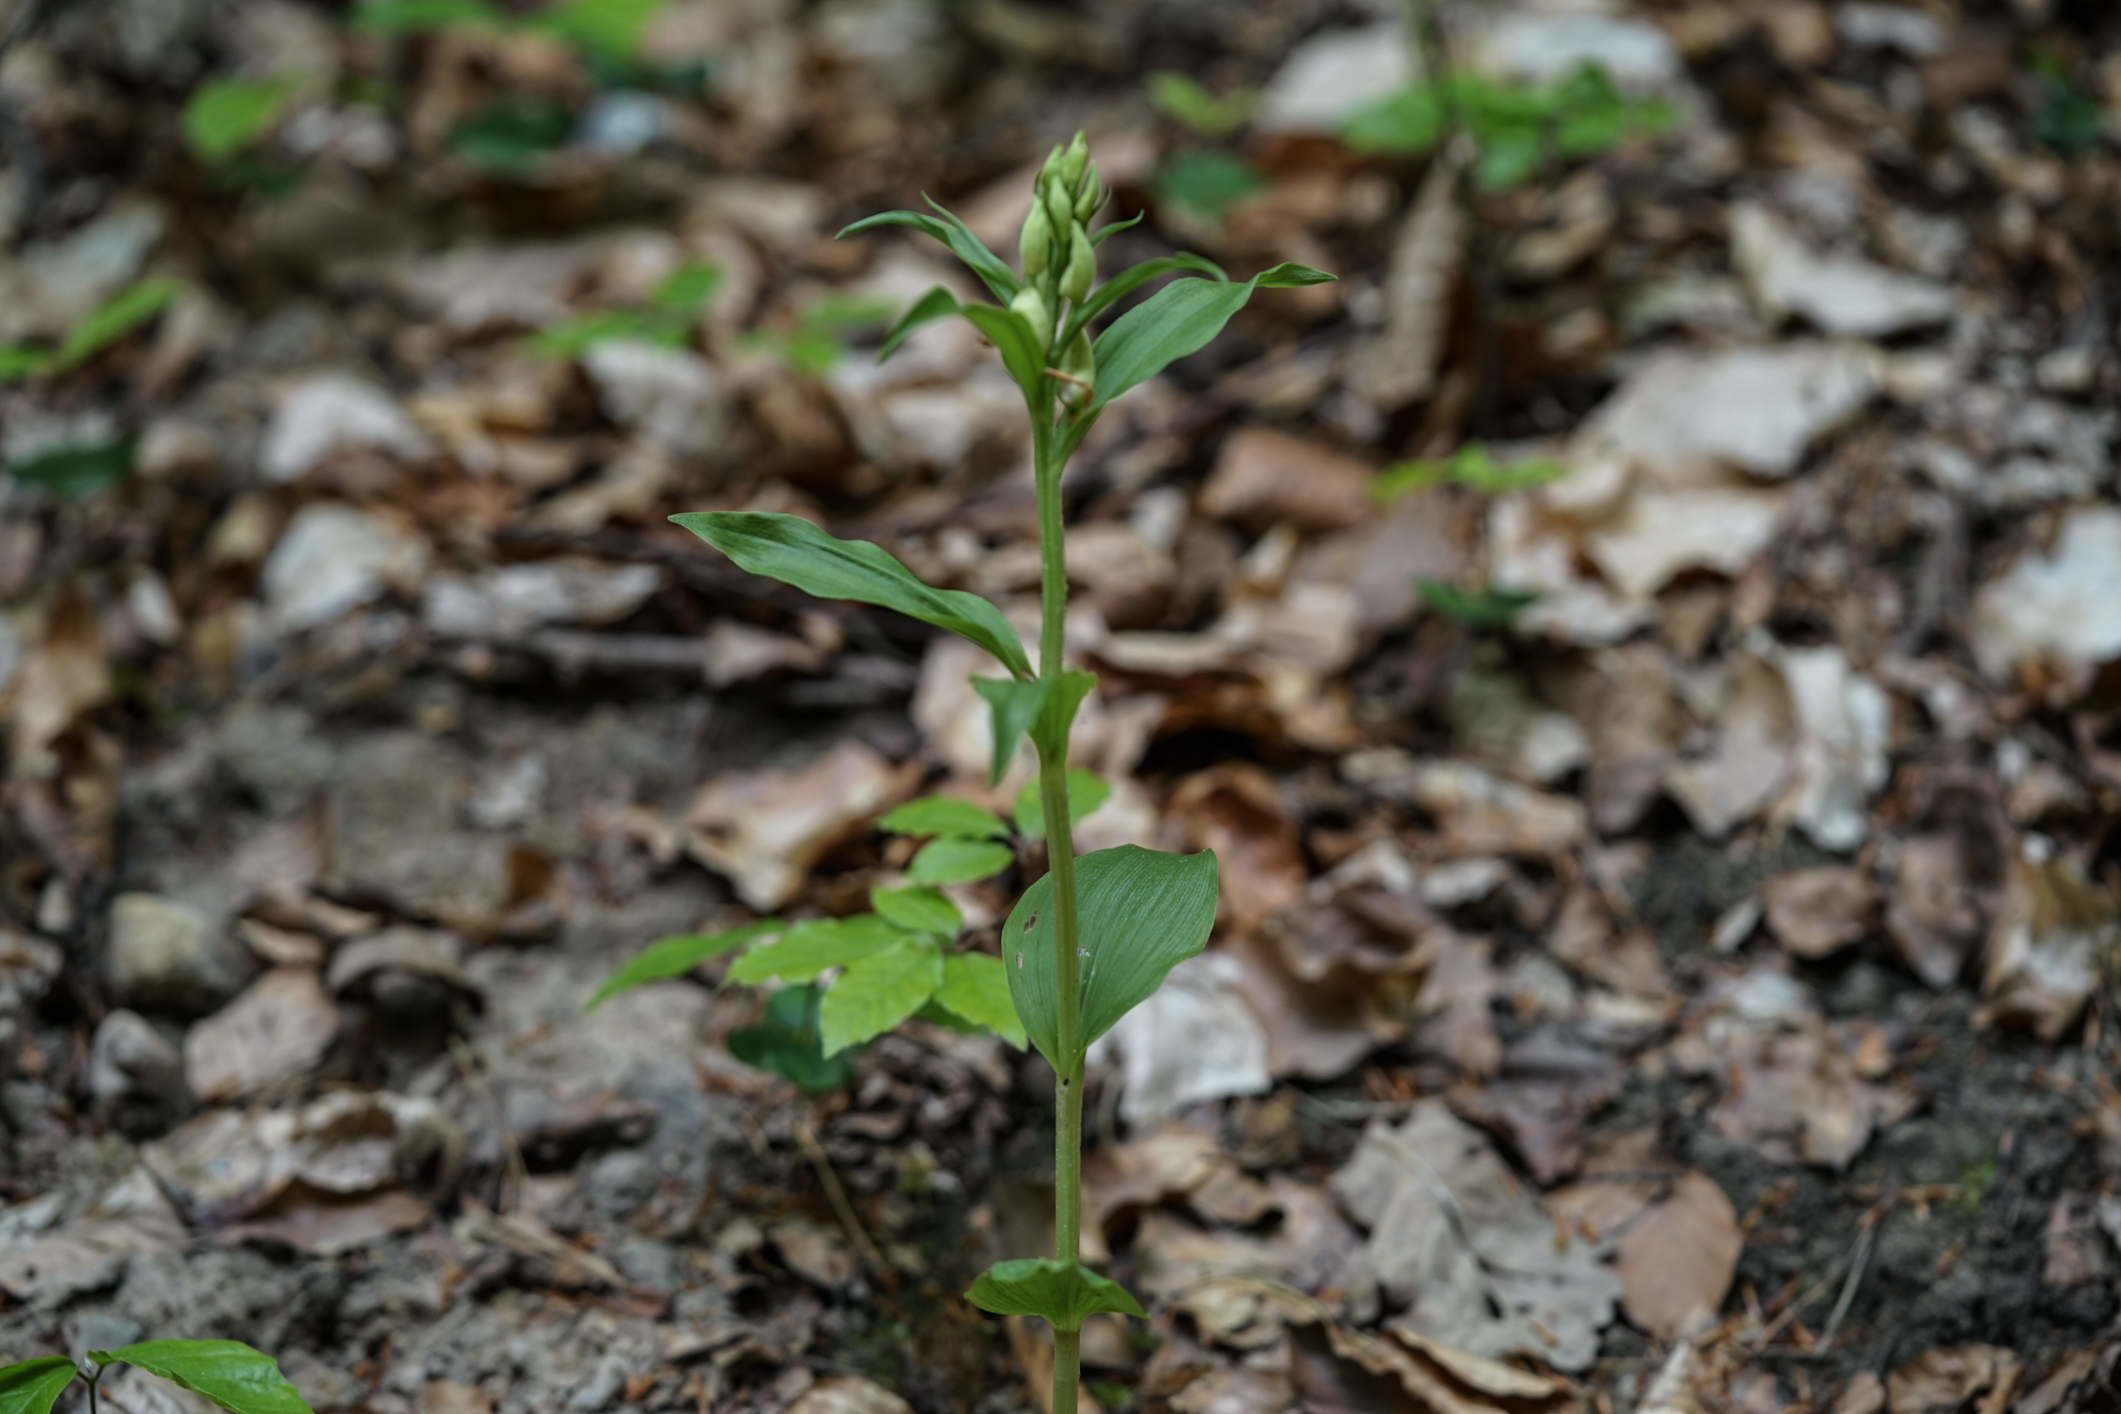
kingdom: Plantae
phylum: Tracheophyta
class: Liliopsida
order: Asparagales
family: Orchidaceae
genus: Cephalanthera
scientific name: Cephalanthera damasonium
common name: White helleborine
